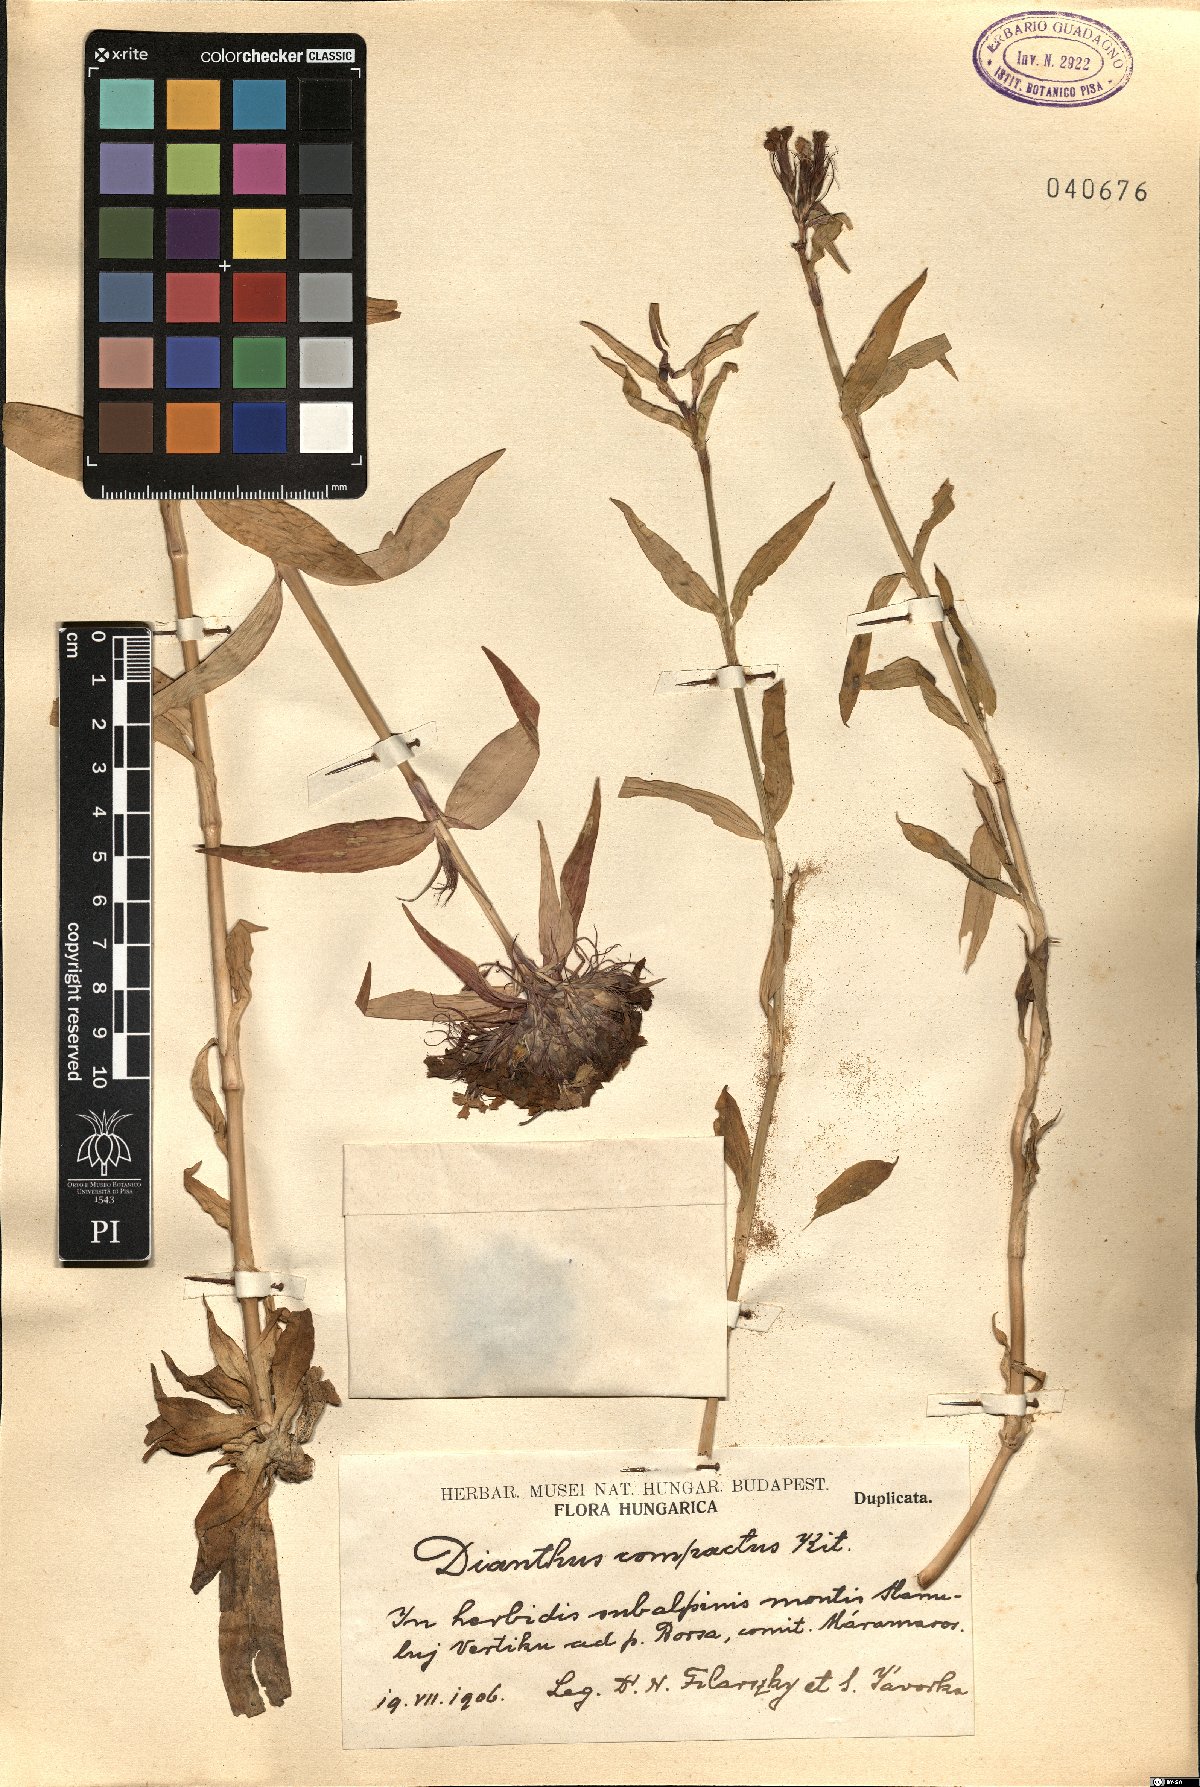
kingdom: Plantae
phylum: Tracheophyta
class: Magnoliopsida
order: Caryophyllales
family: Caryophyllaceae
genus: Dianthus
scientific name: Dianthus barbatus
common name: Sweet-william
